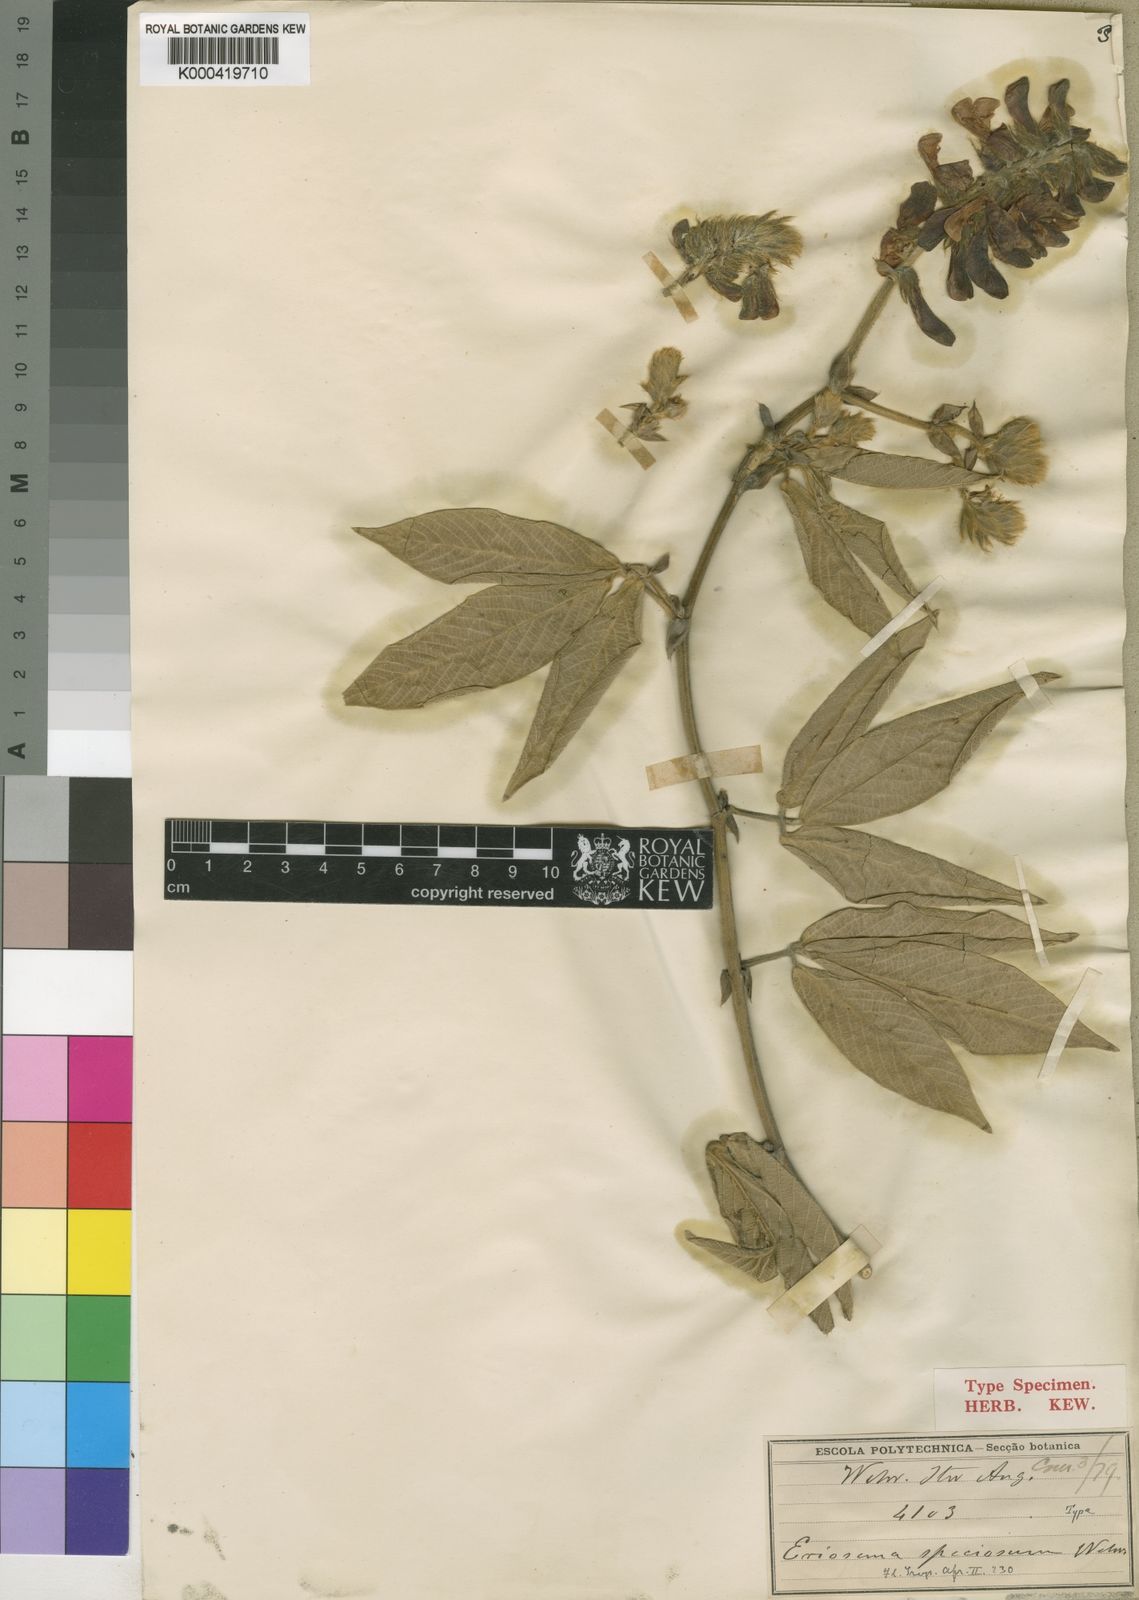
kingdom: Plantae
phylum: Tracheophyta
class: Magnoliopsida
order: Fabales
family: Fabaceae
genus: Eriosema
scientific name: Eriosema speciosum
